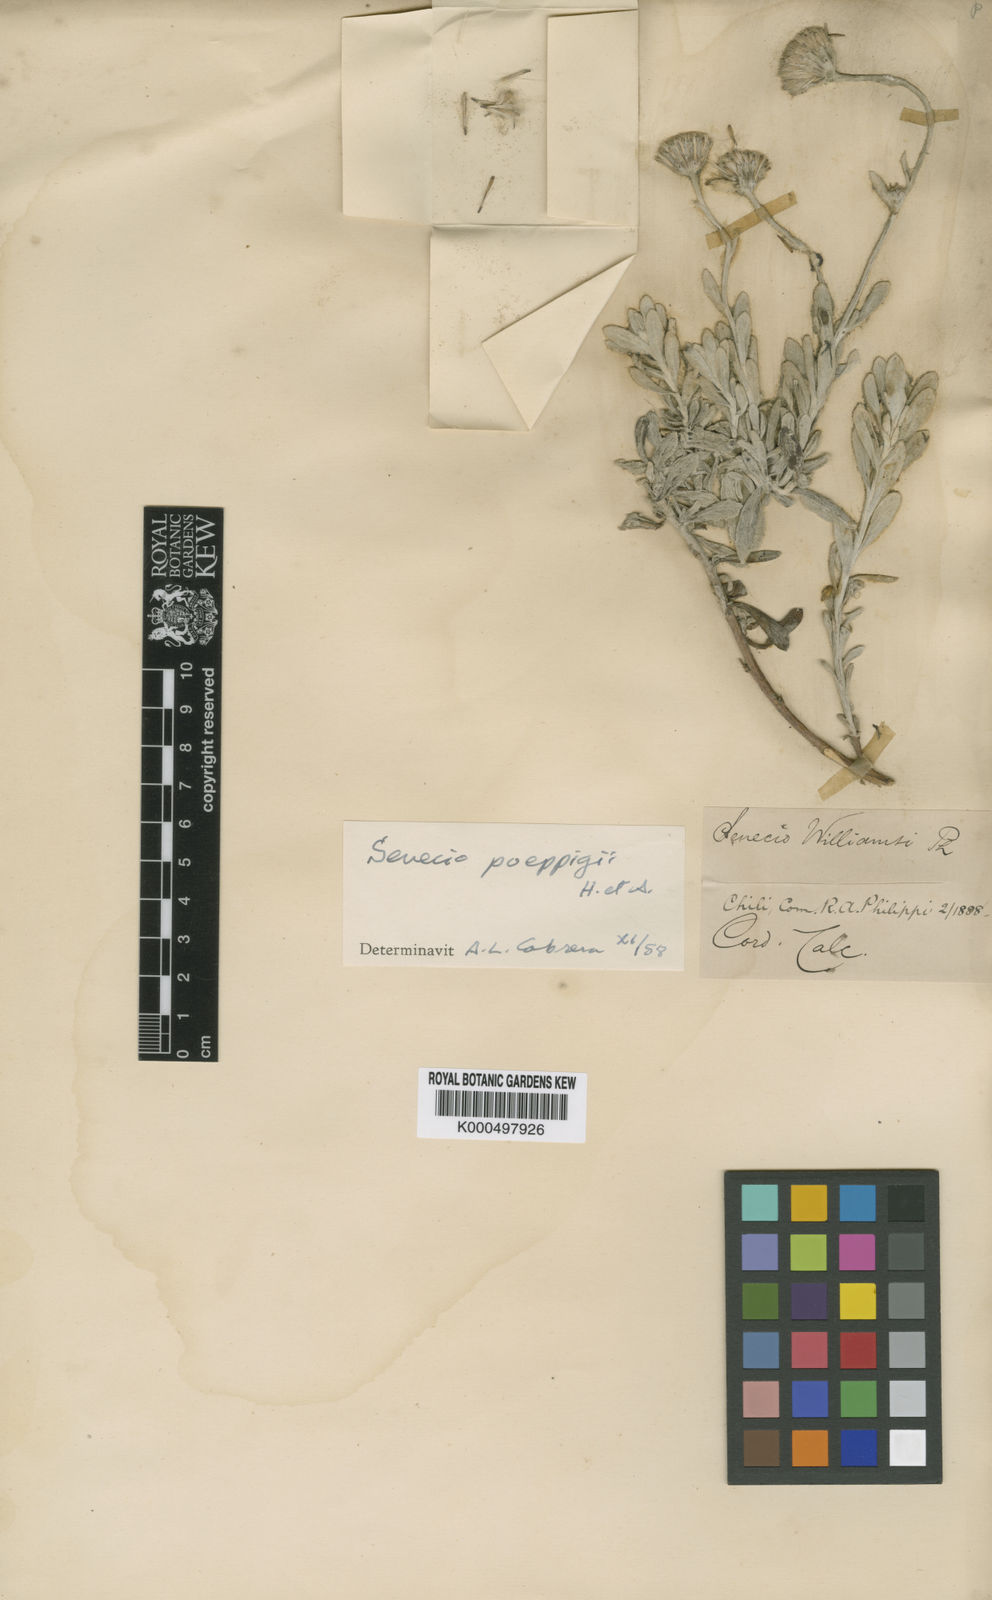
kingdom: Plantae
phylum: Tracheophyta
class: Magnoliopsida
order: Asterales
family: Asteraceae
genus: Senecio
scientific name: Senecio poeppigii
